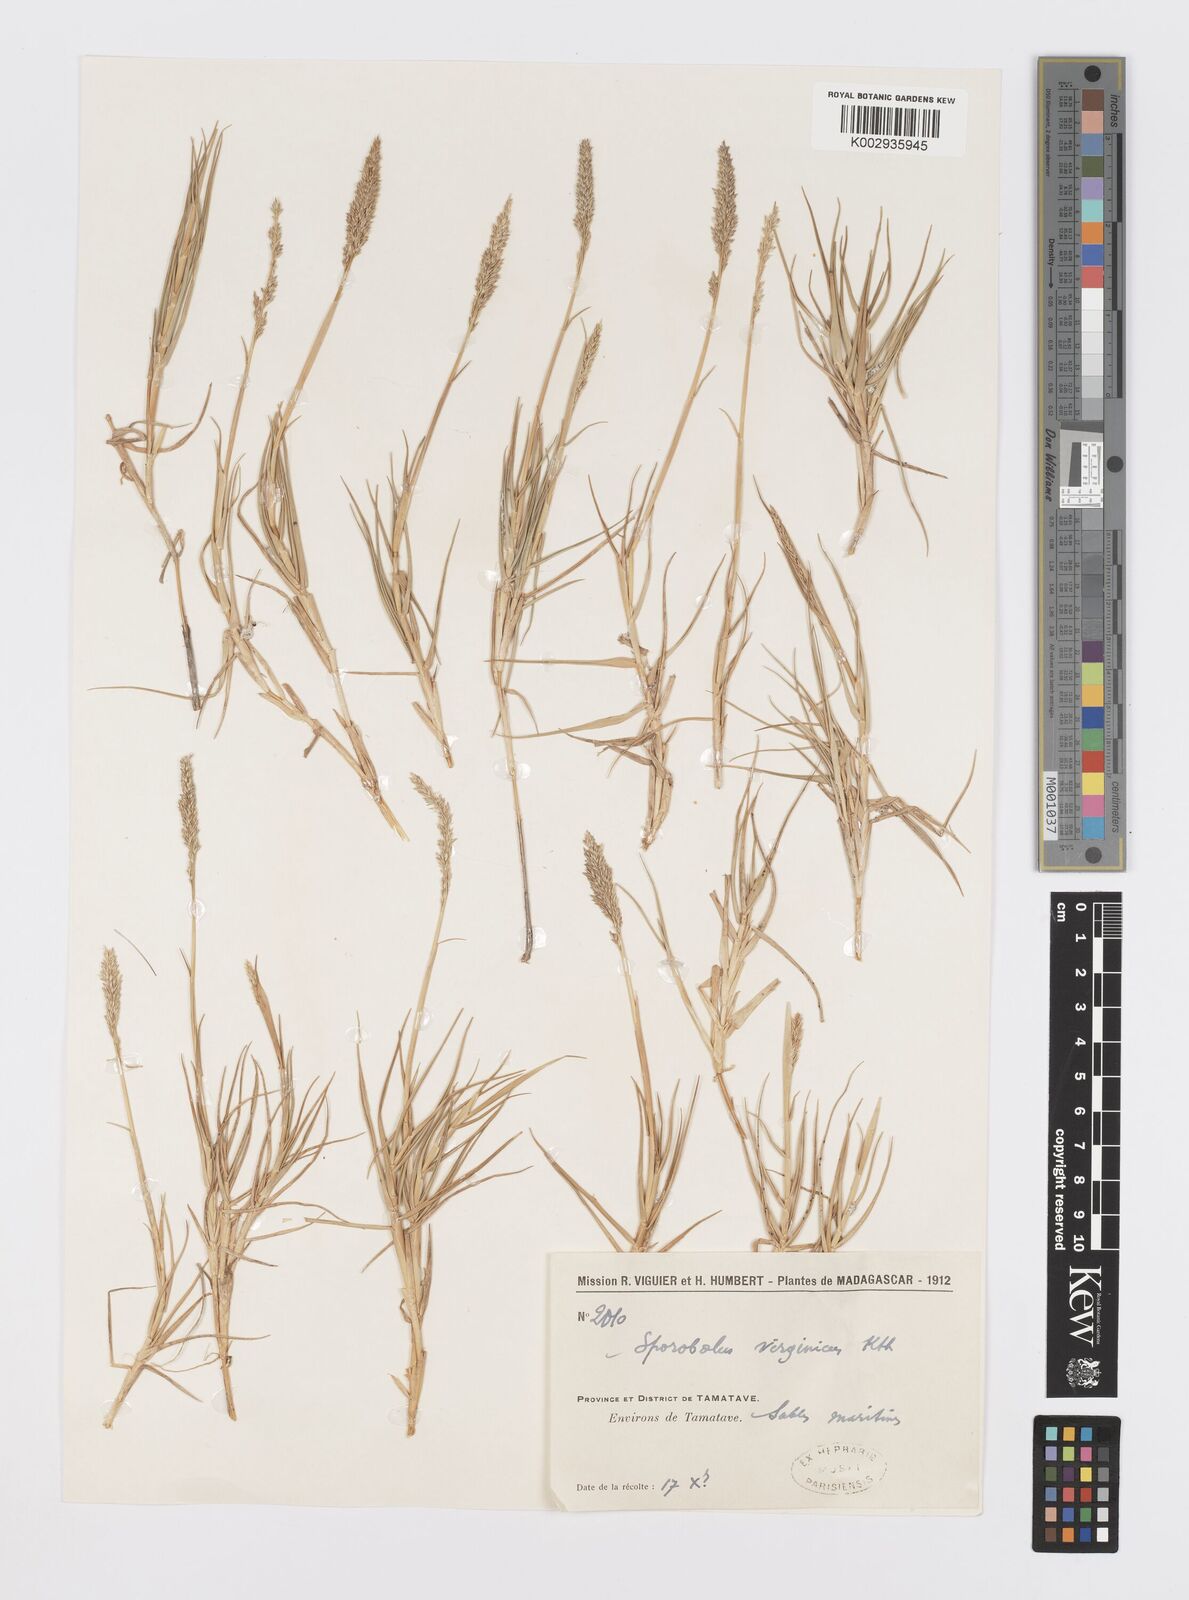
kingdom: Plantae
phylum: Tracheophyta
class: Liliopsida
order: Poales
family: Poaceae
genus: Sporobolus
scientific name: Sporobolus virginicus
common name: Beach dropseed
